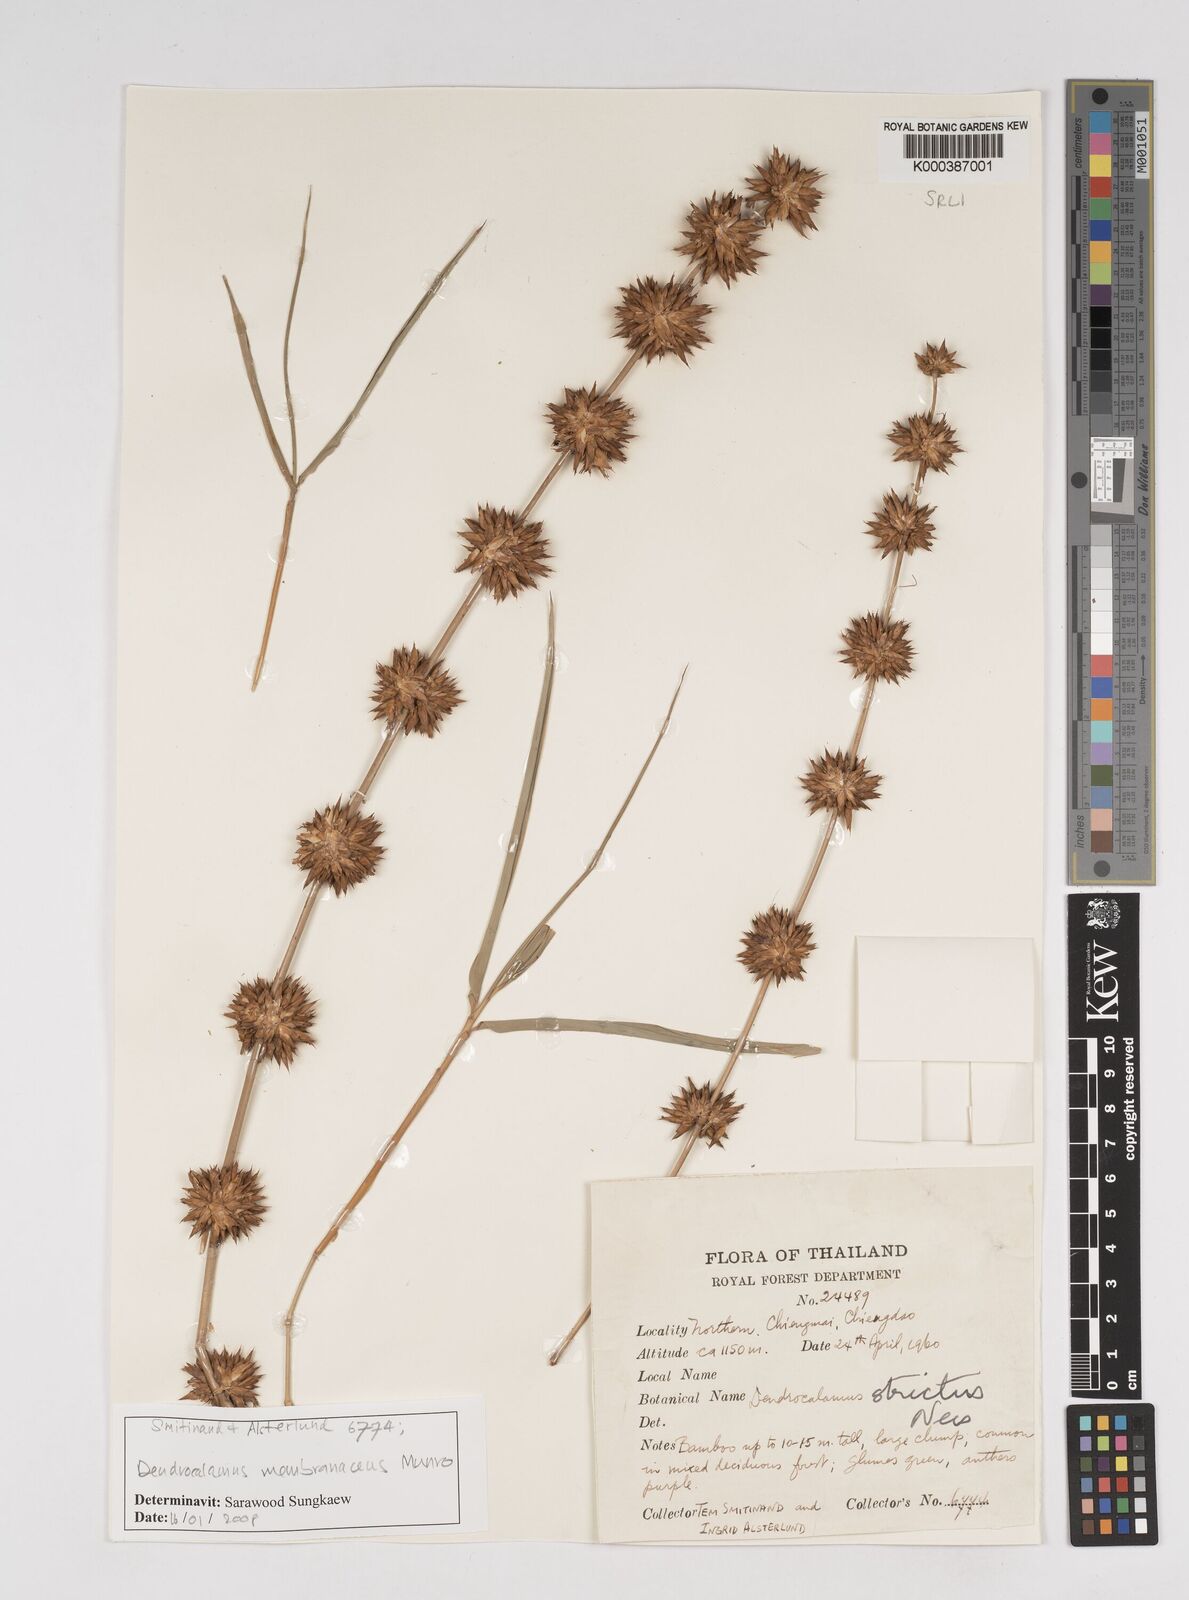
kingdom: Plantae
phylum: Tracheophyta
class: Liliopsida
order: Poales
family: Poaceae
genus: Dendrocalamus
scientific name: Dendrocalamus membranaceus
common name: White bamboo
